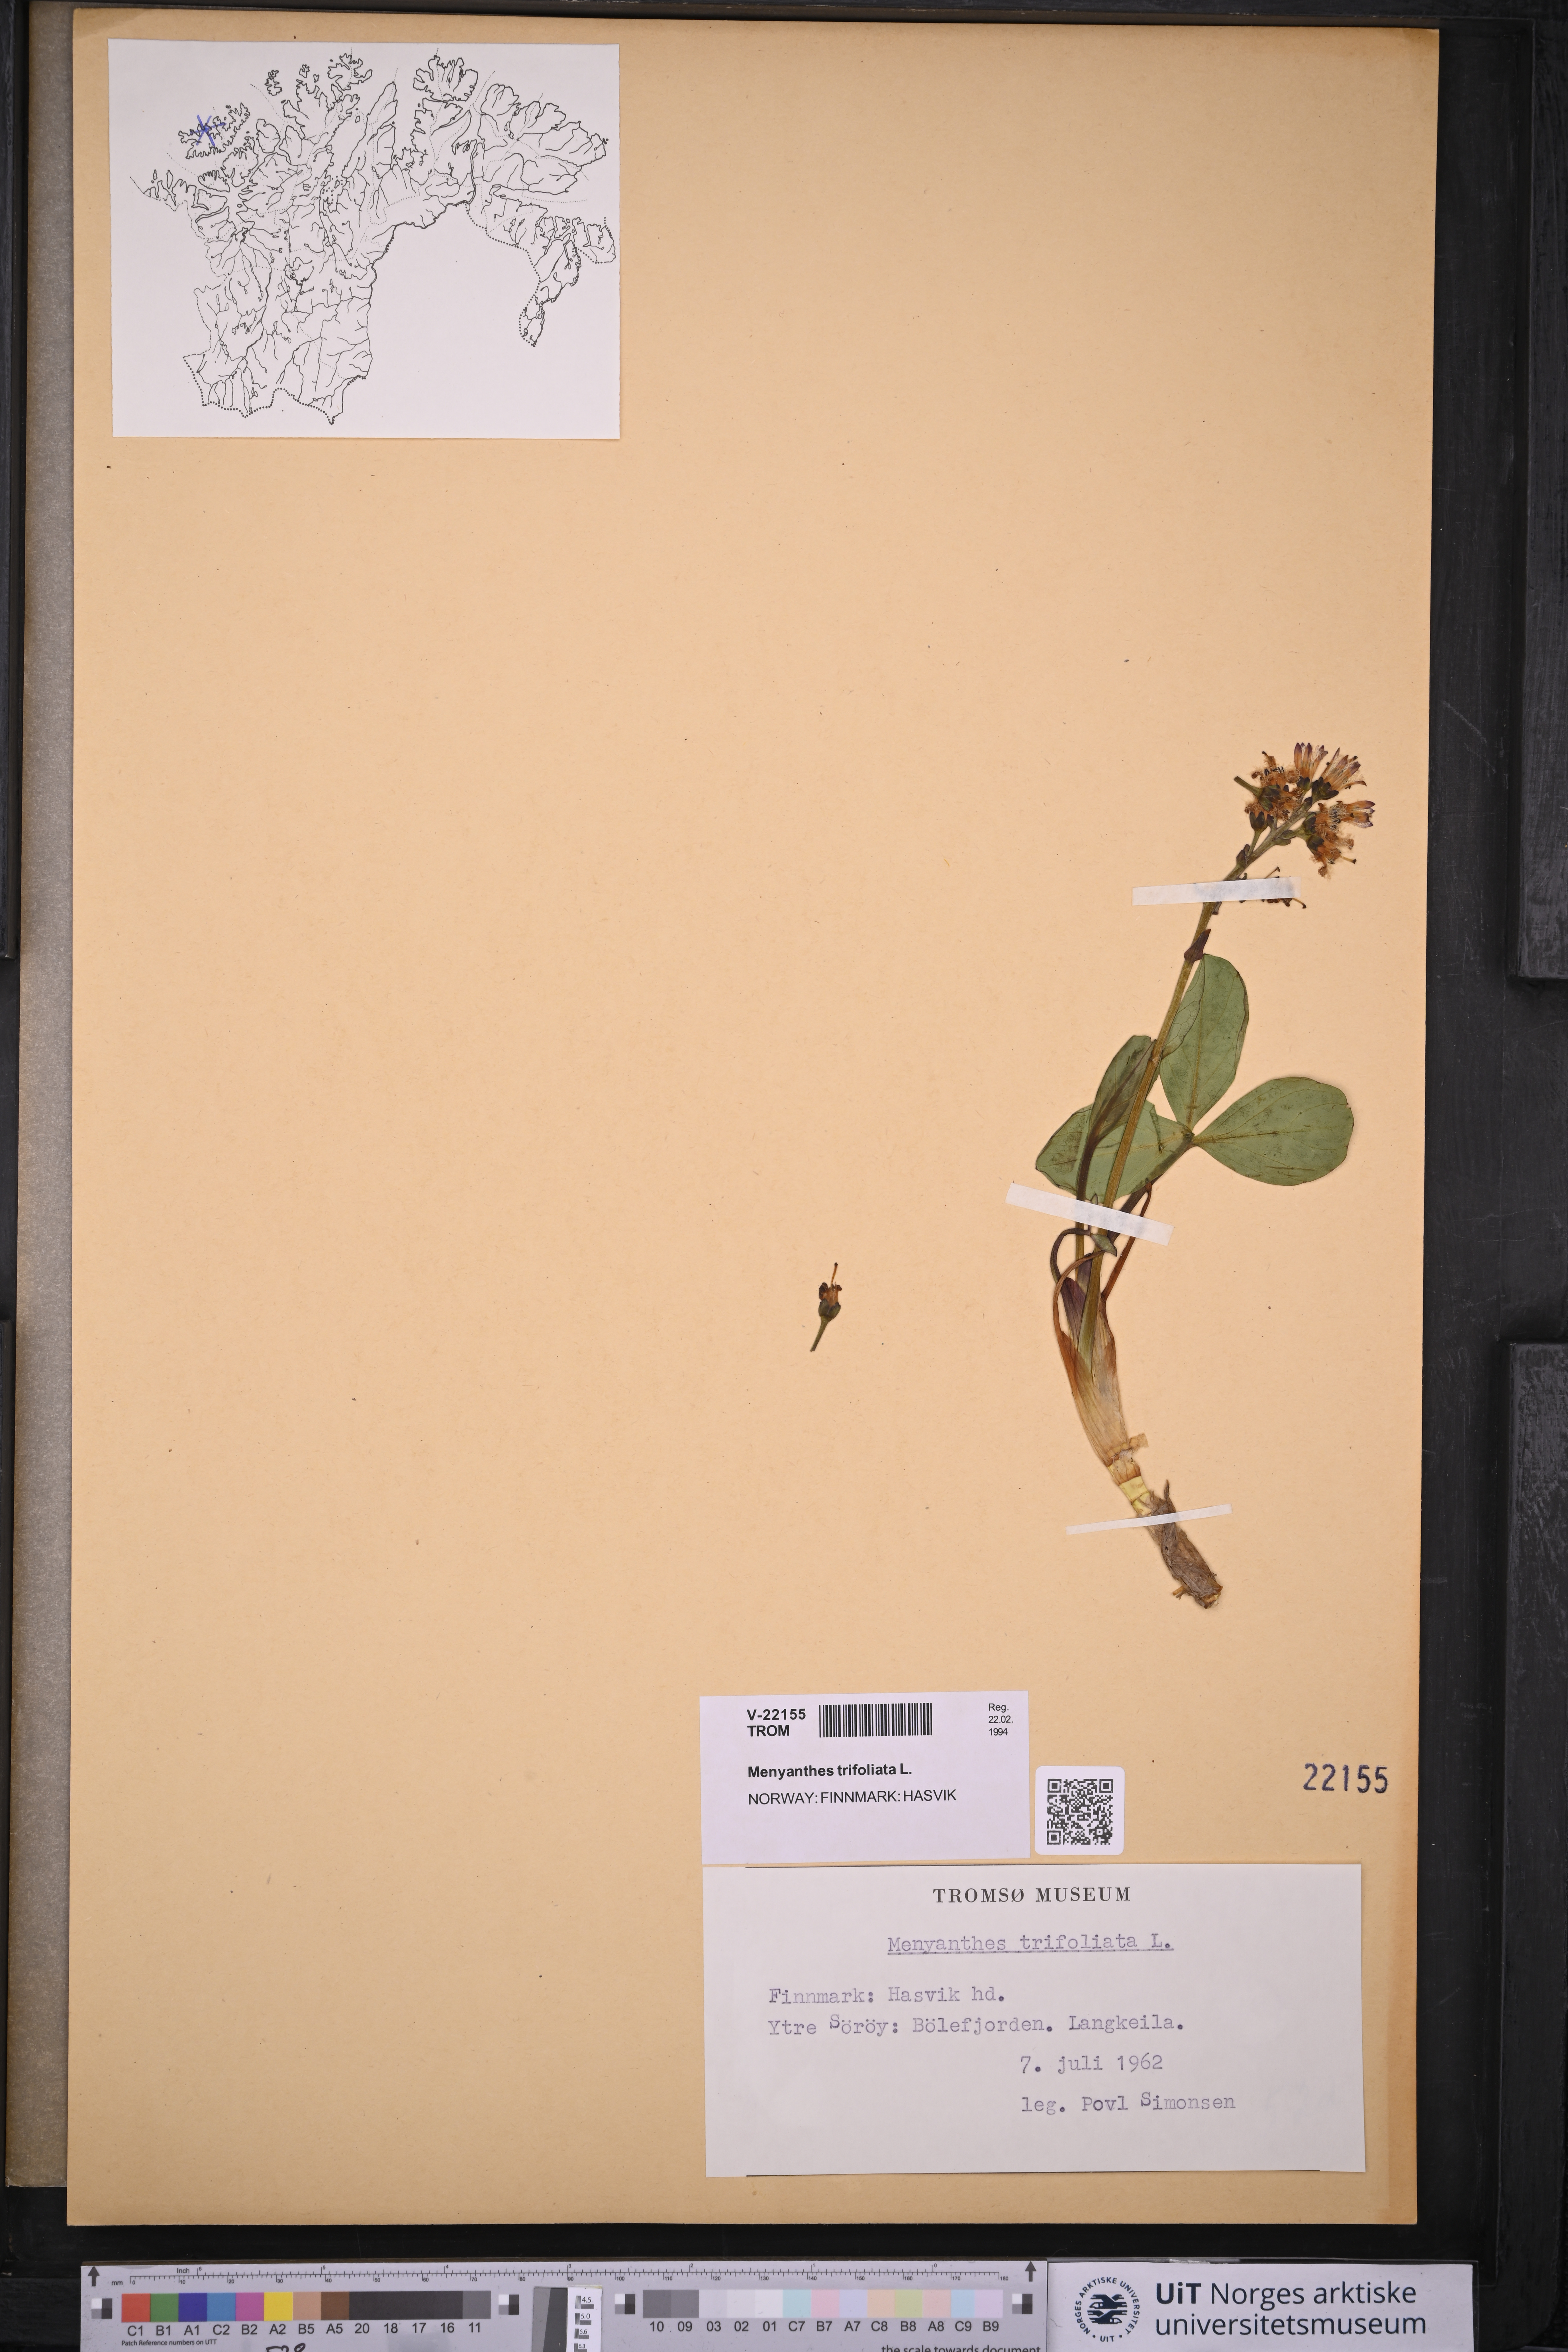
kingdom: Plantae
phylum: Tracheophyta
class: Magnoliopsida
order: Asterales
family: Menyanthaceae
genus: Menyanthes
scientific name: Menyanthes trifoliata
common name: Bogbean
